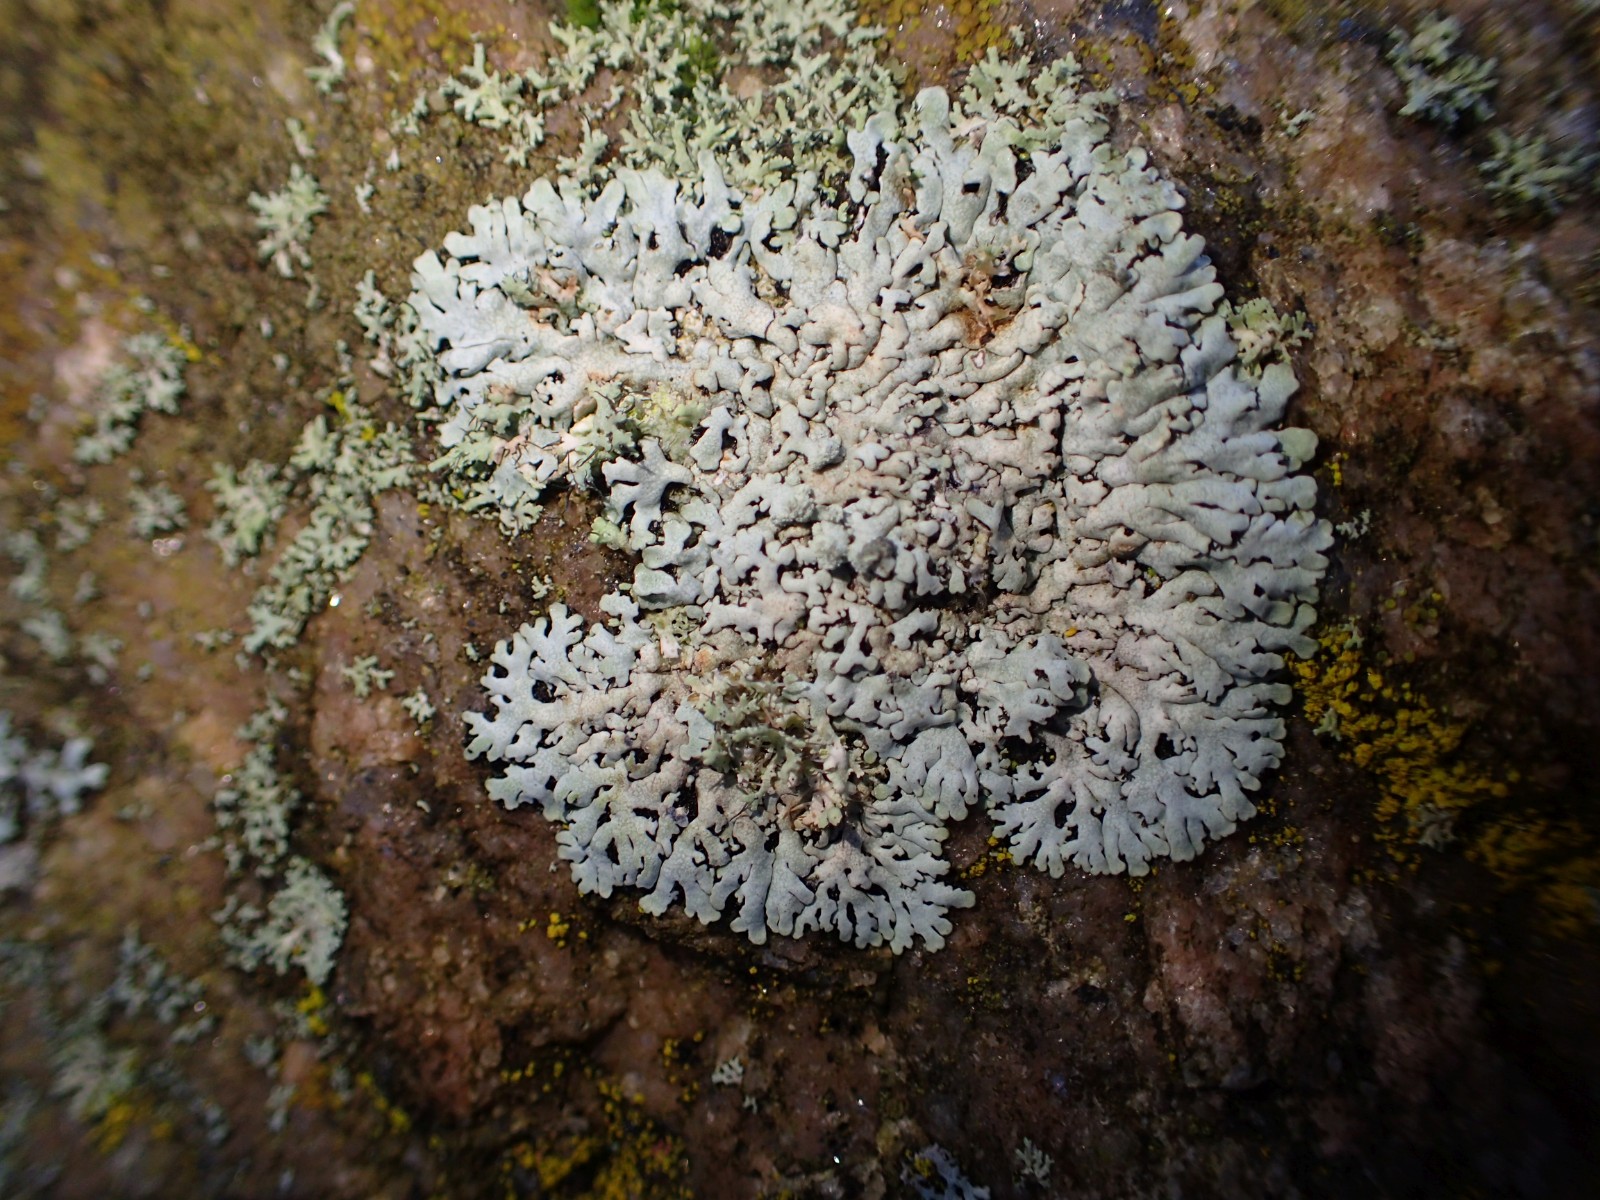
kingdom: Fungi
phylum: Ascomycota
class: Lecanoromycetes
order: Caliciales
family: Physciaceae
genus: Physcia
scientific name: Physcia caesia
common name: blågrå rosetlav
